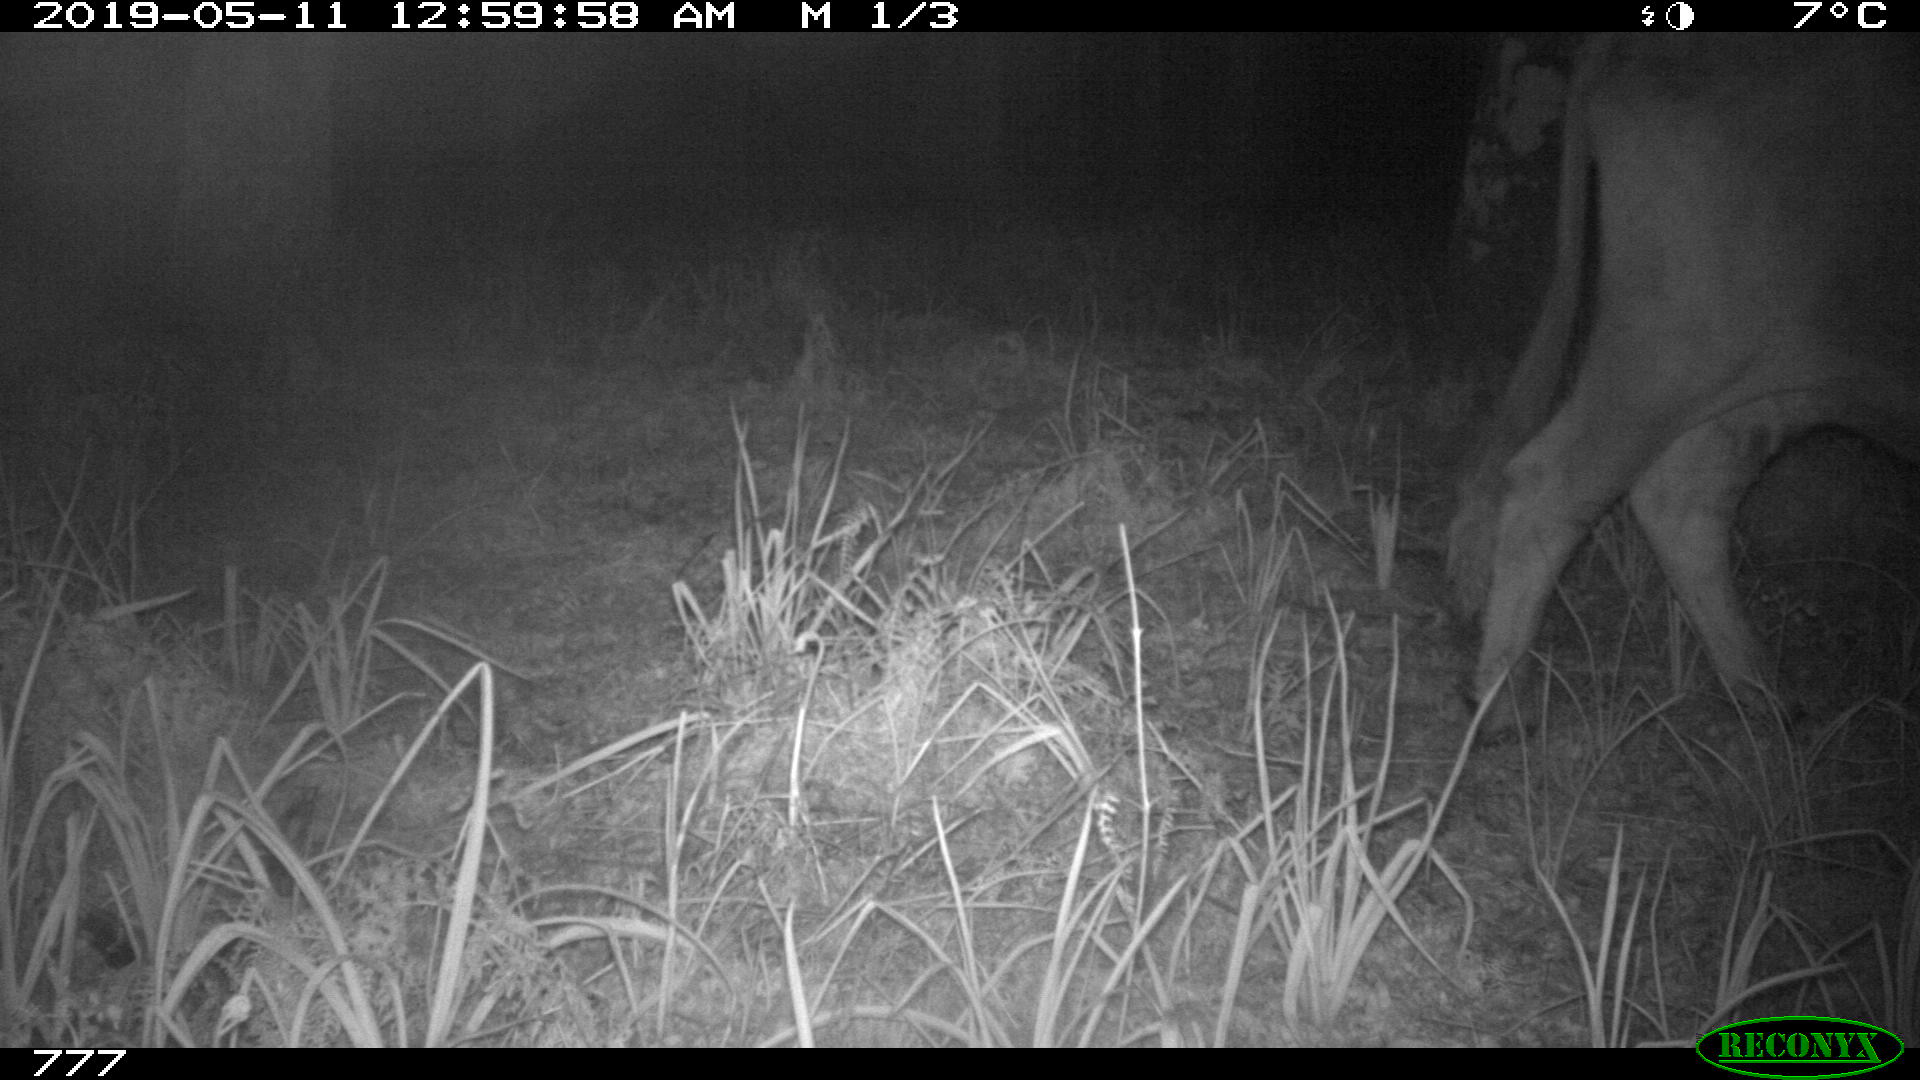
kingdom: Animalia
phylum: Chordata
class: Mammalia
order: Artiodactyla
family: Bovidae
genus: Bos
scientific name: Bos taurus
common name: Domesticated cattle
